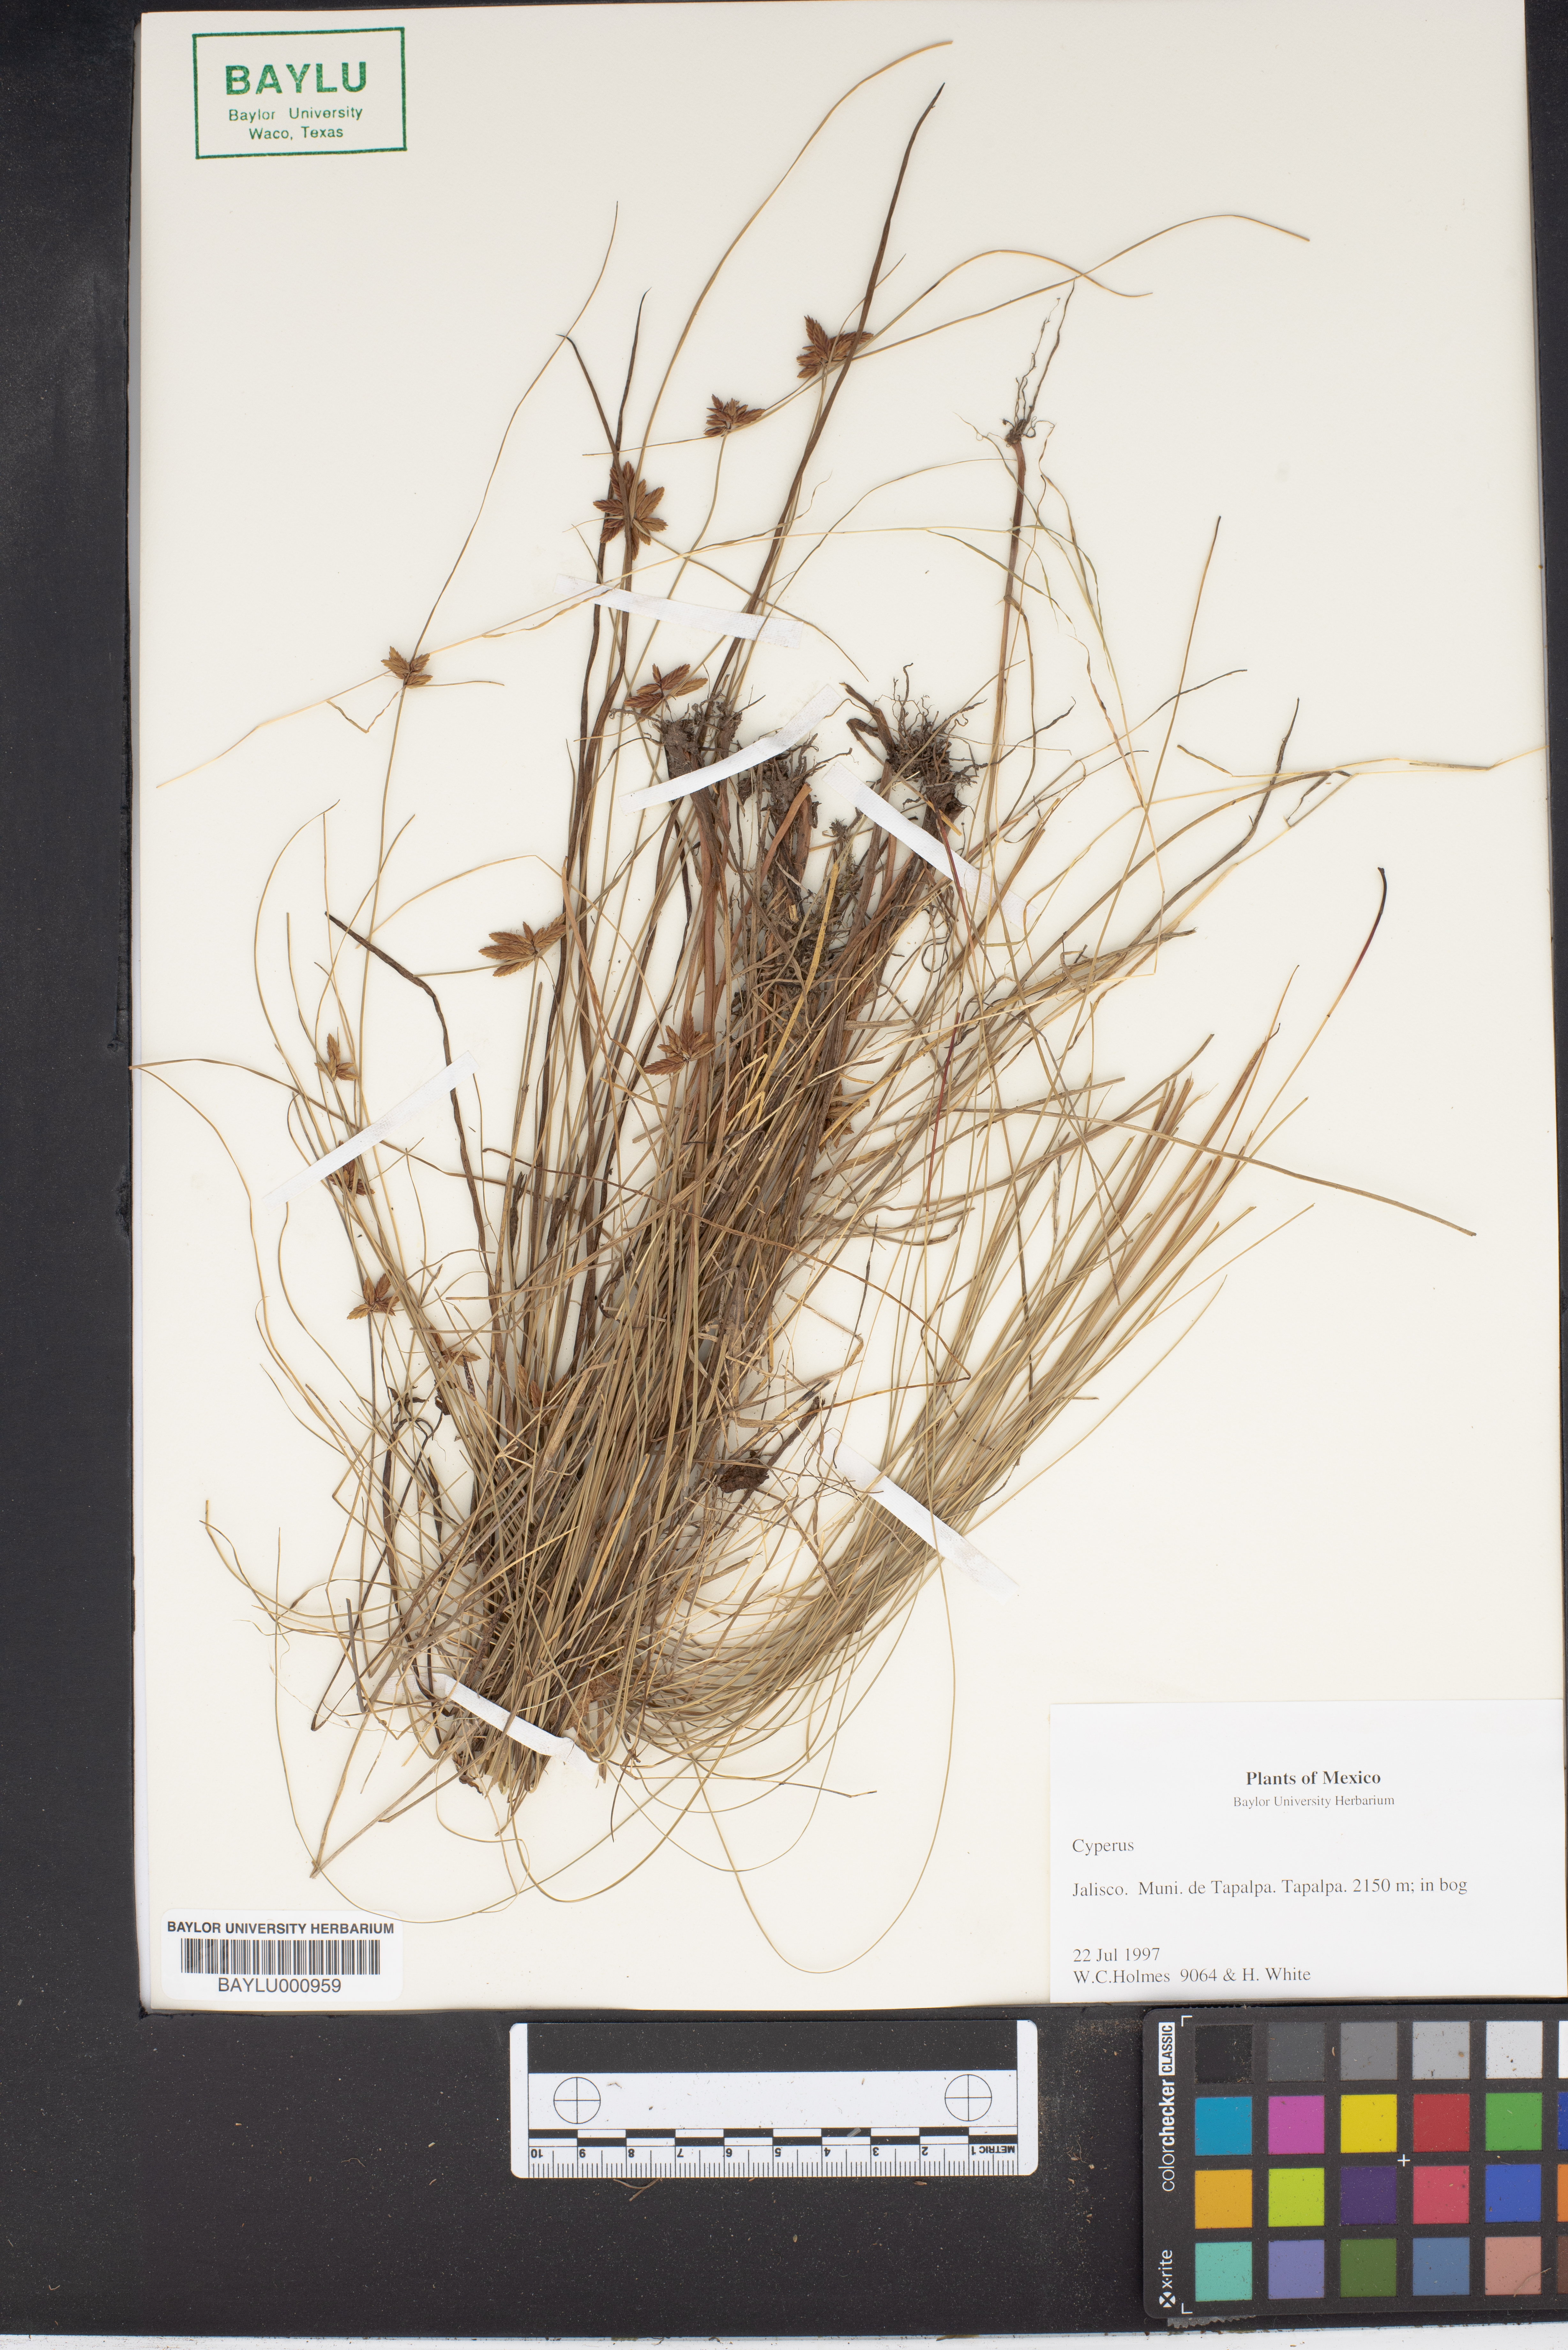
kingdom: Plantae
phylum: Tracheophyta
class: Liliopsida
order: Poales
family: Cyperaceae
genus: Cyperus
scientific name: Cyperus
